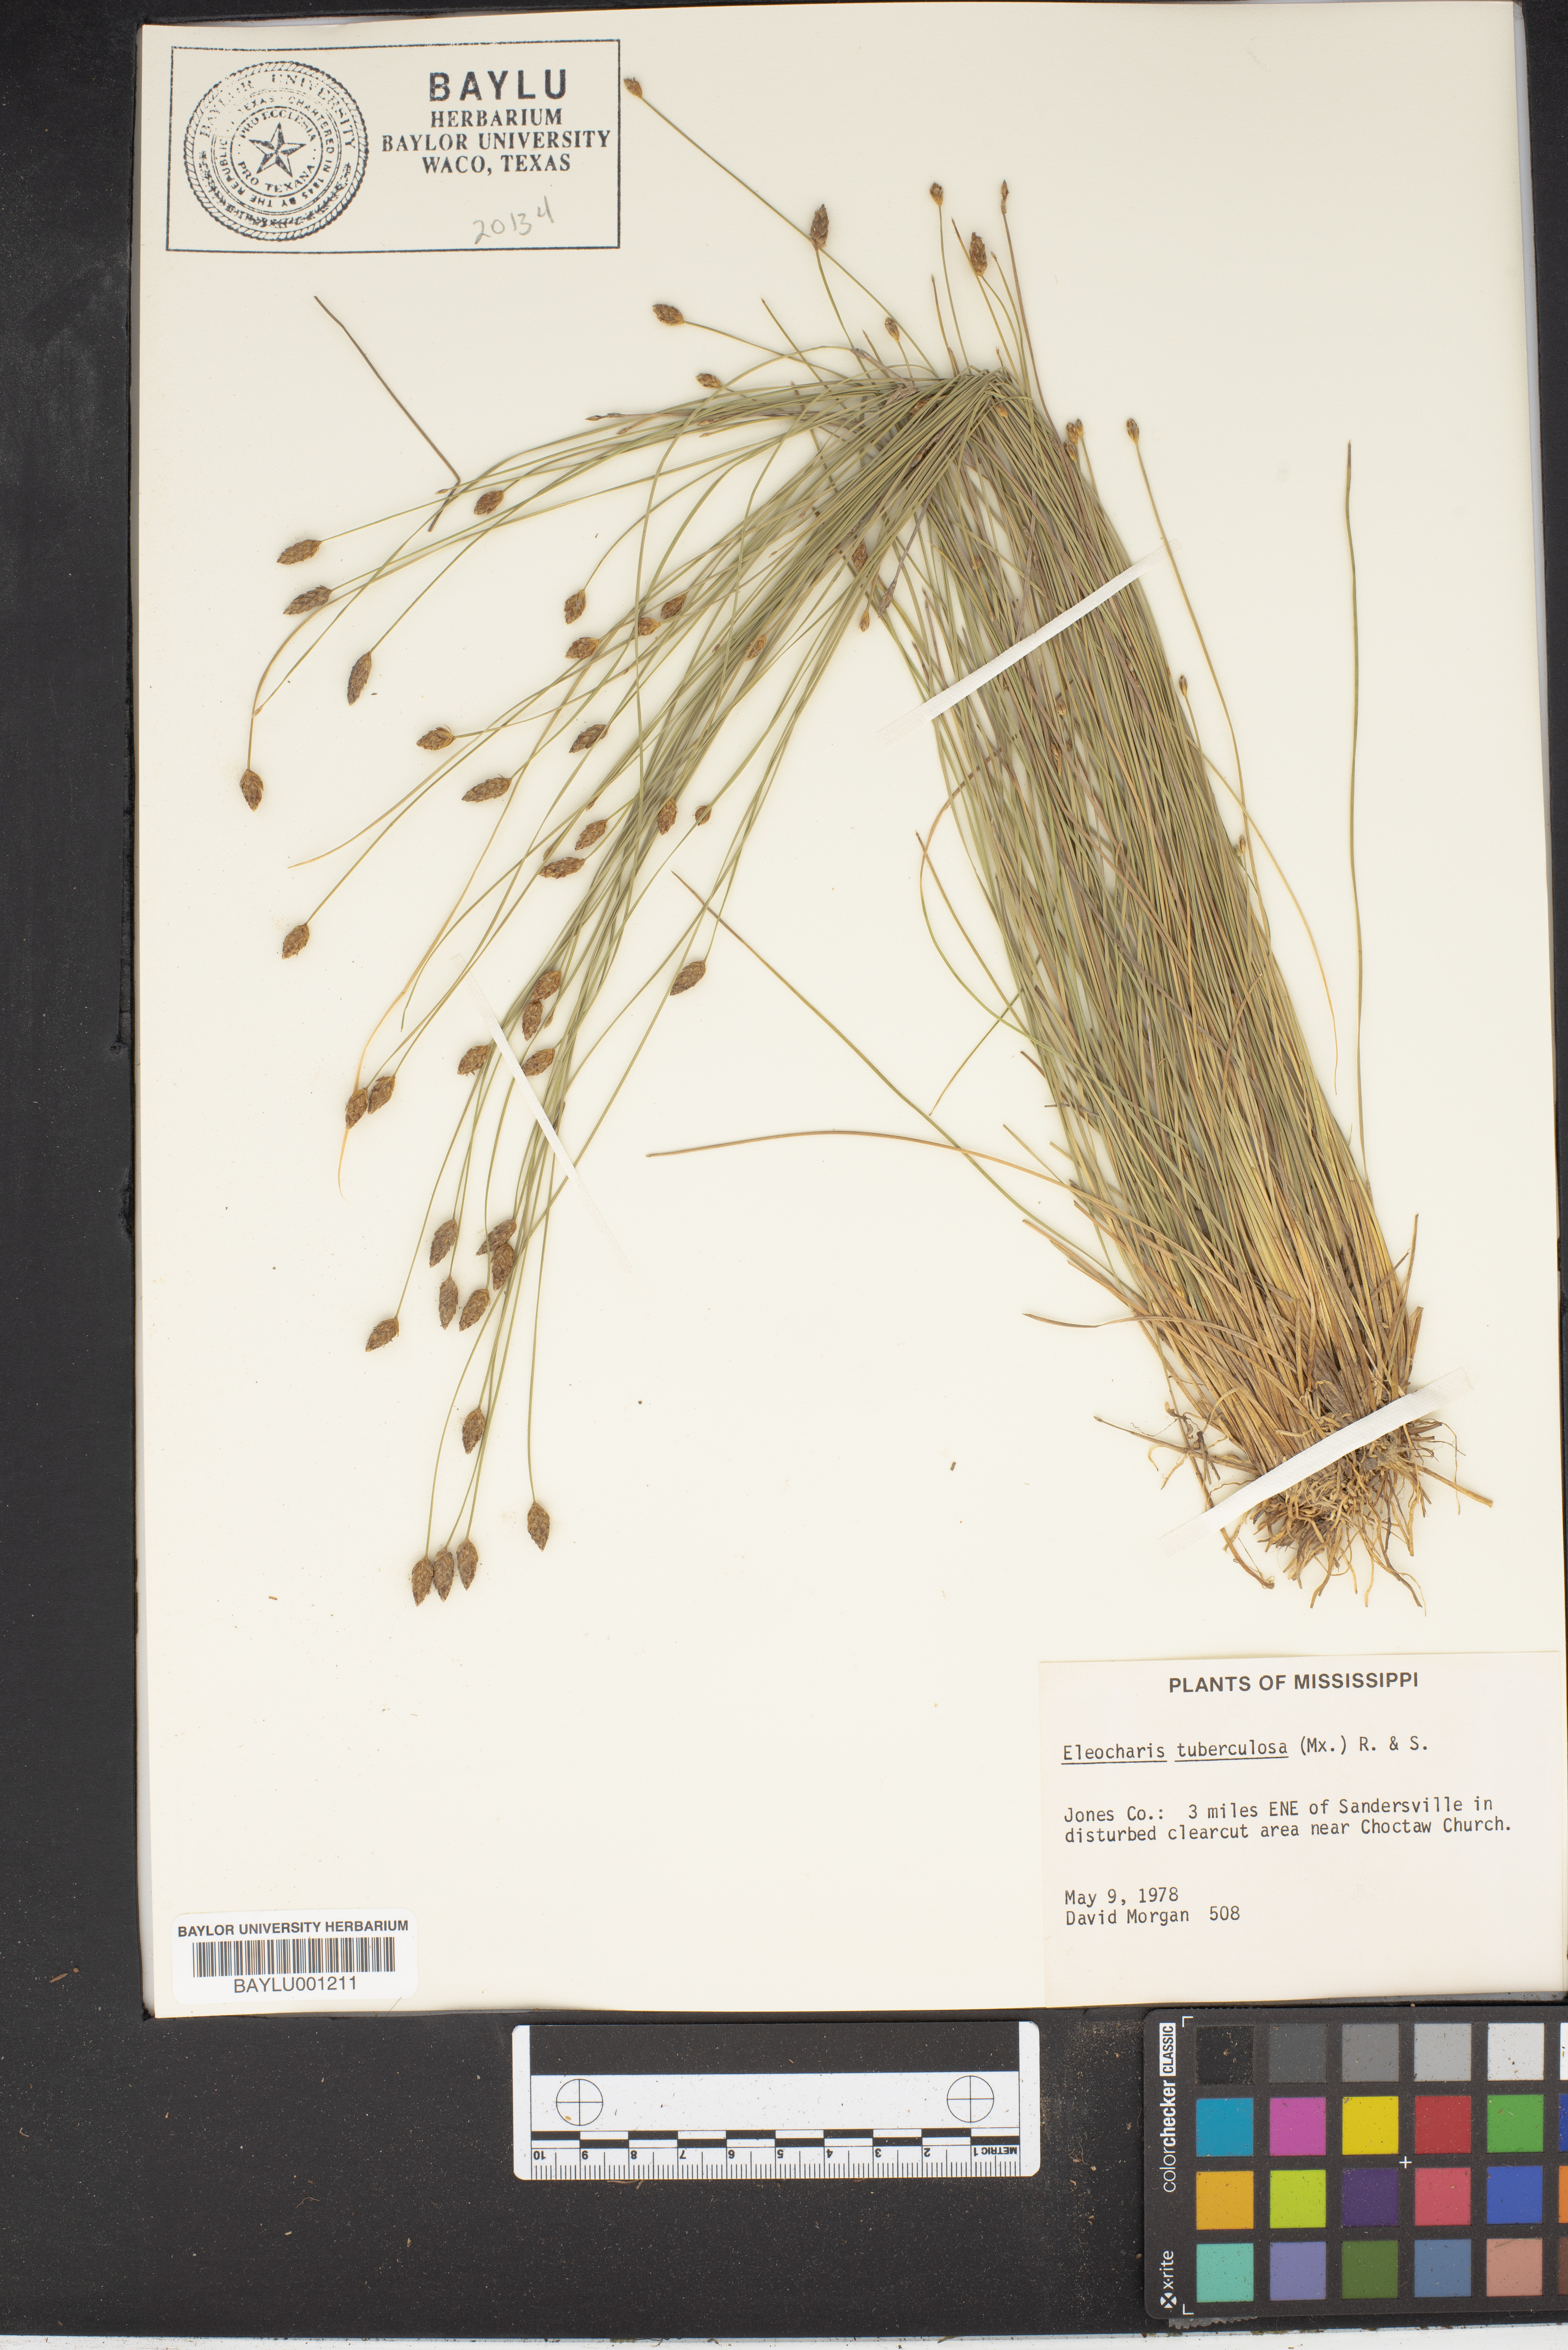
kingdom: Plantae
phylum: Tracheophyta
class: Liliopsida
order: Poales
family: Cyperaceae
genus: Eleocharis
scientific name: Eleocharis tuberculosa
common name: Cone-cup spikerush
